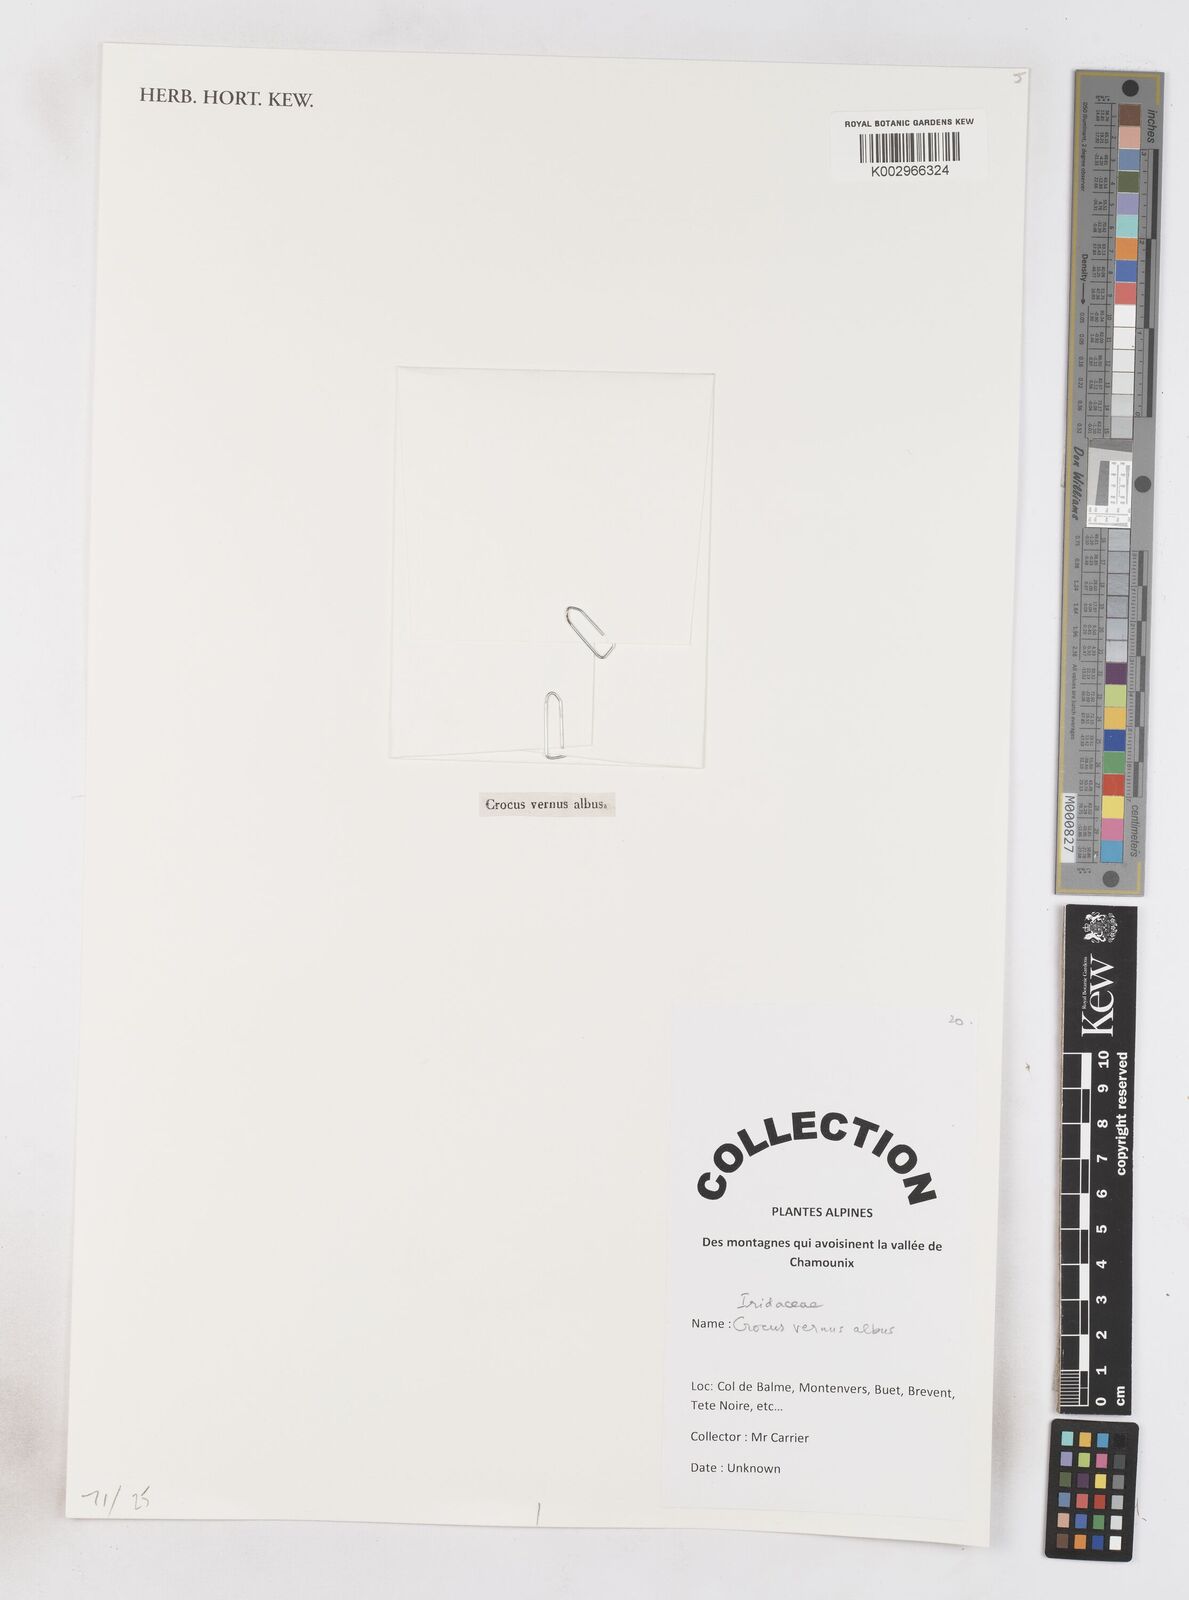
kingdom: Plantae
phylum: Tracheophyta
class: Liliopsida
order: Asparagales
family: Iridaceae
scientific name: Iridaceae
